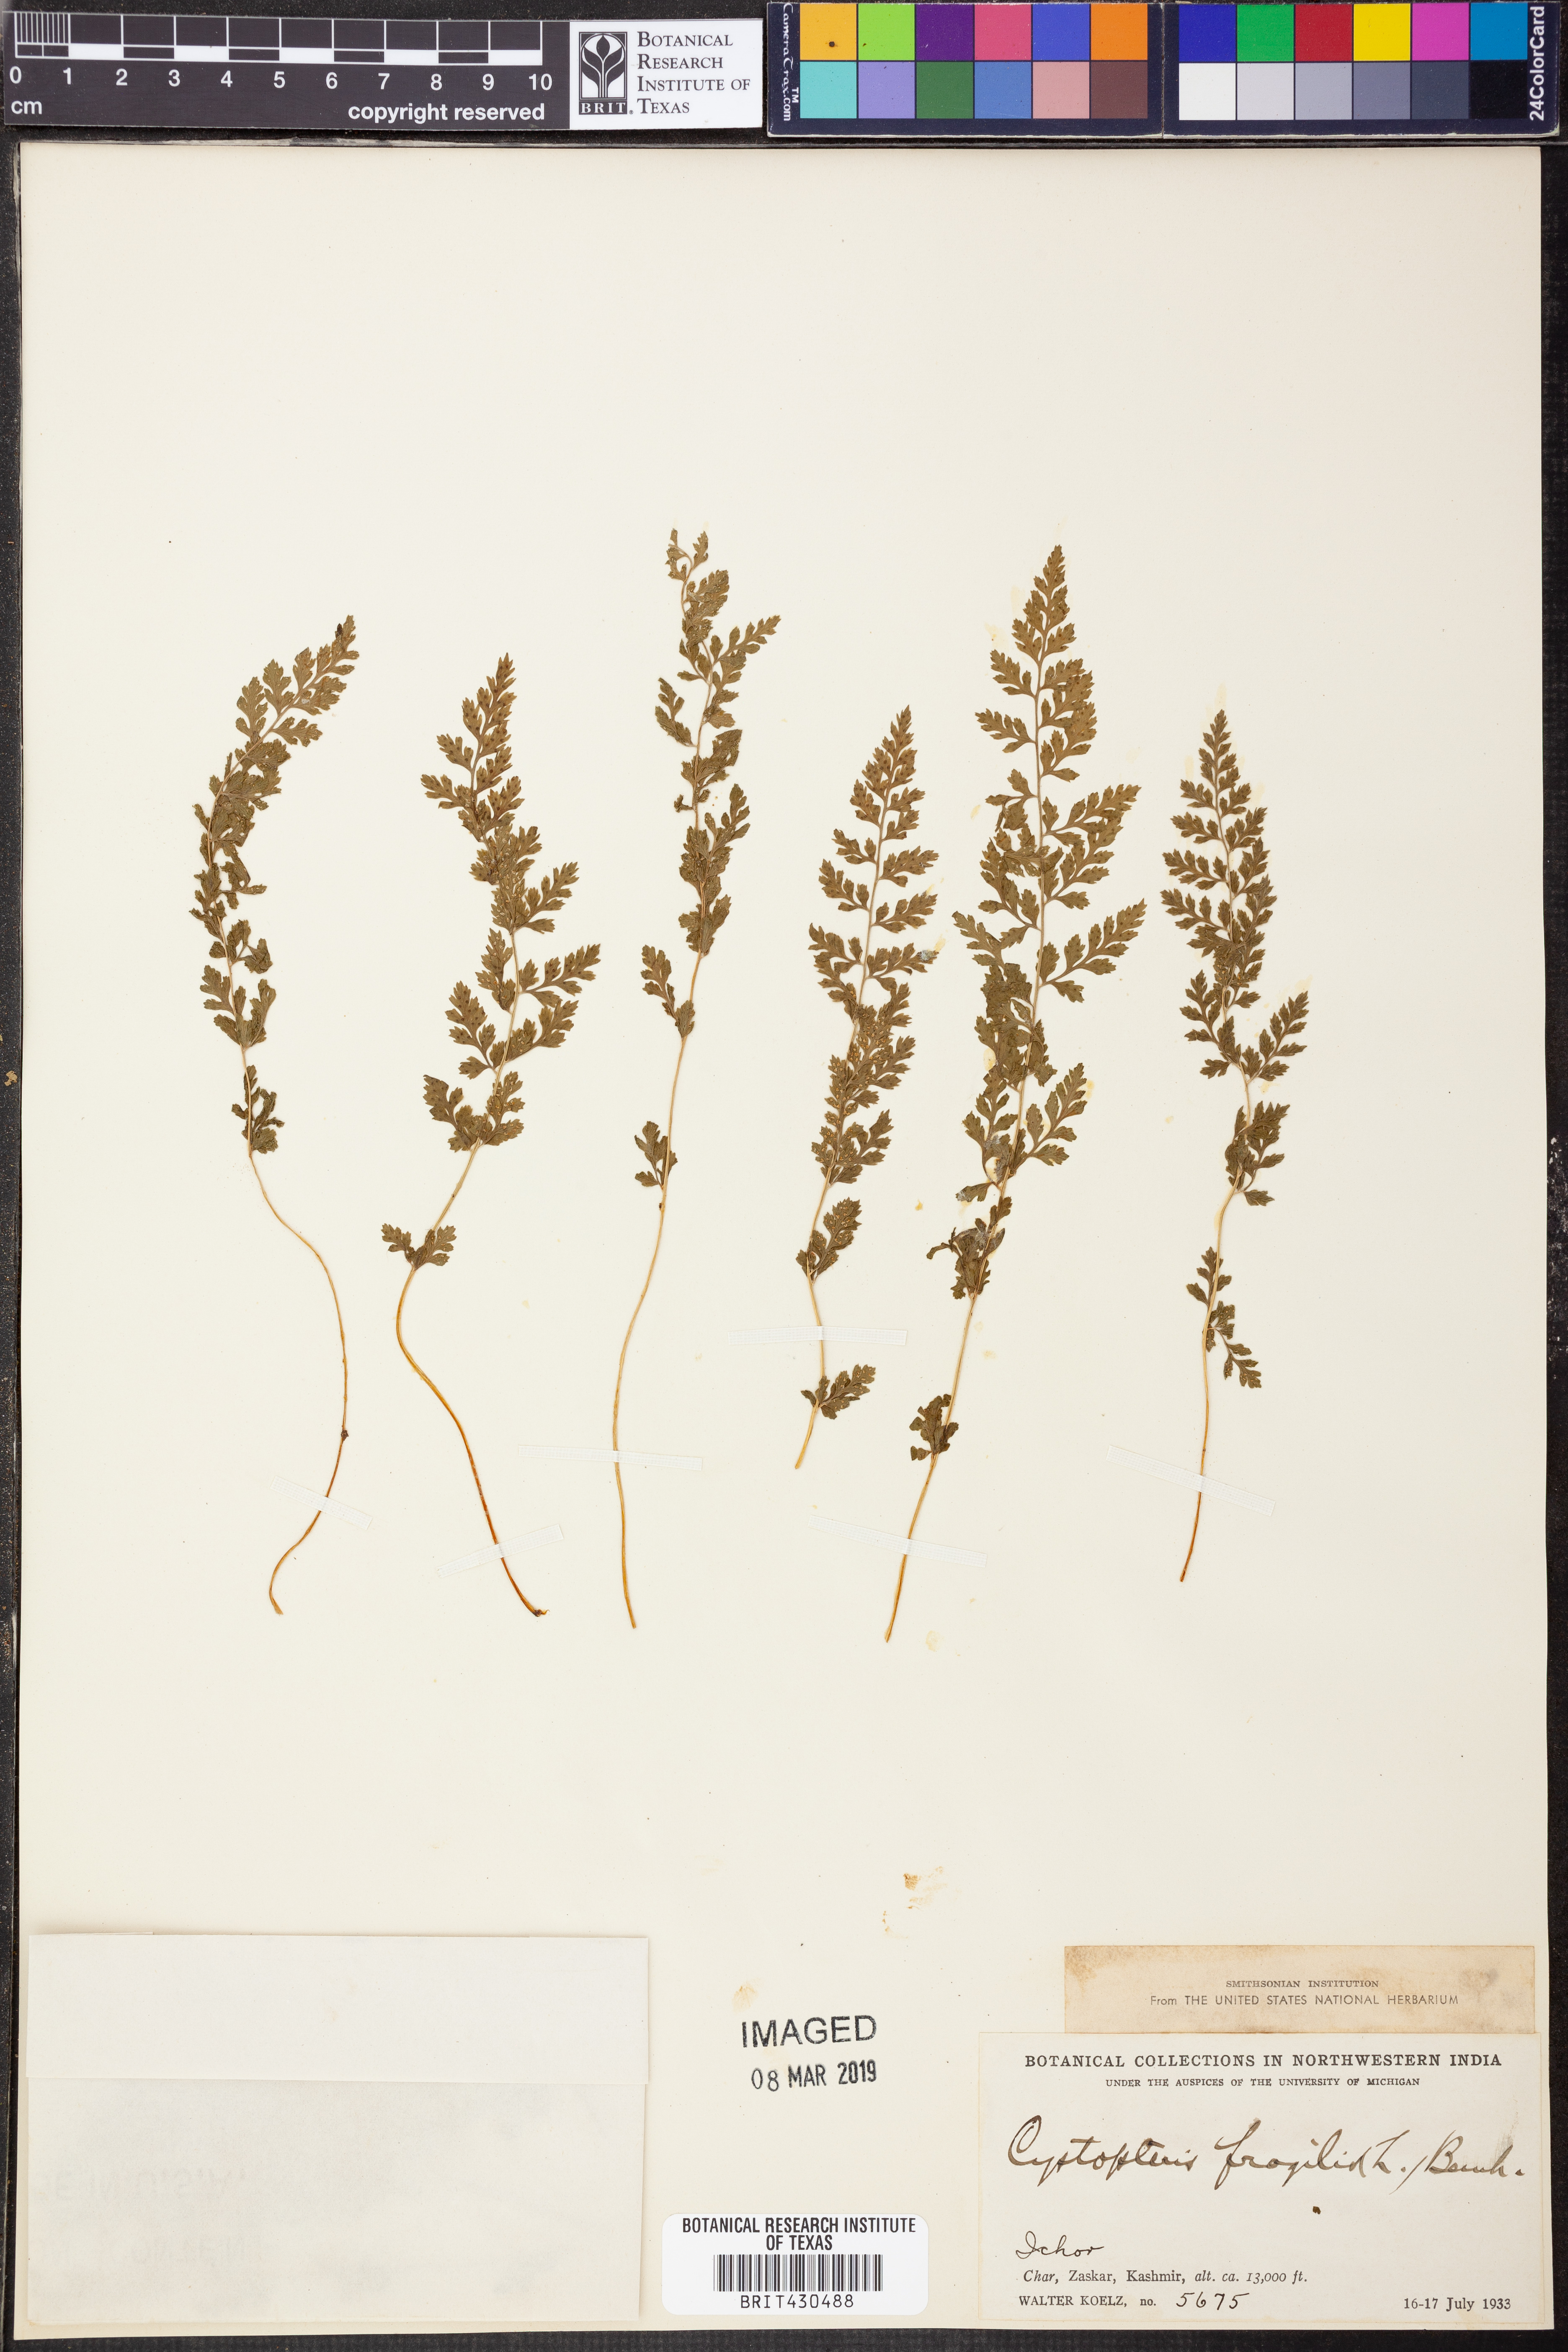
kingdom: Plantae
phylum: Tracheophyta
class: Polypodiopsida
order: Polypodiales
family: Cystopteridaceae
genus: Cystopteris
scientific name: Cystopteris fragilis
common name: Brittle bladder fern
